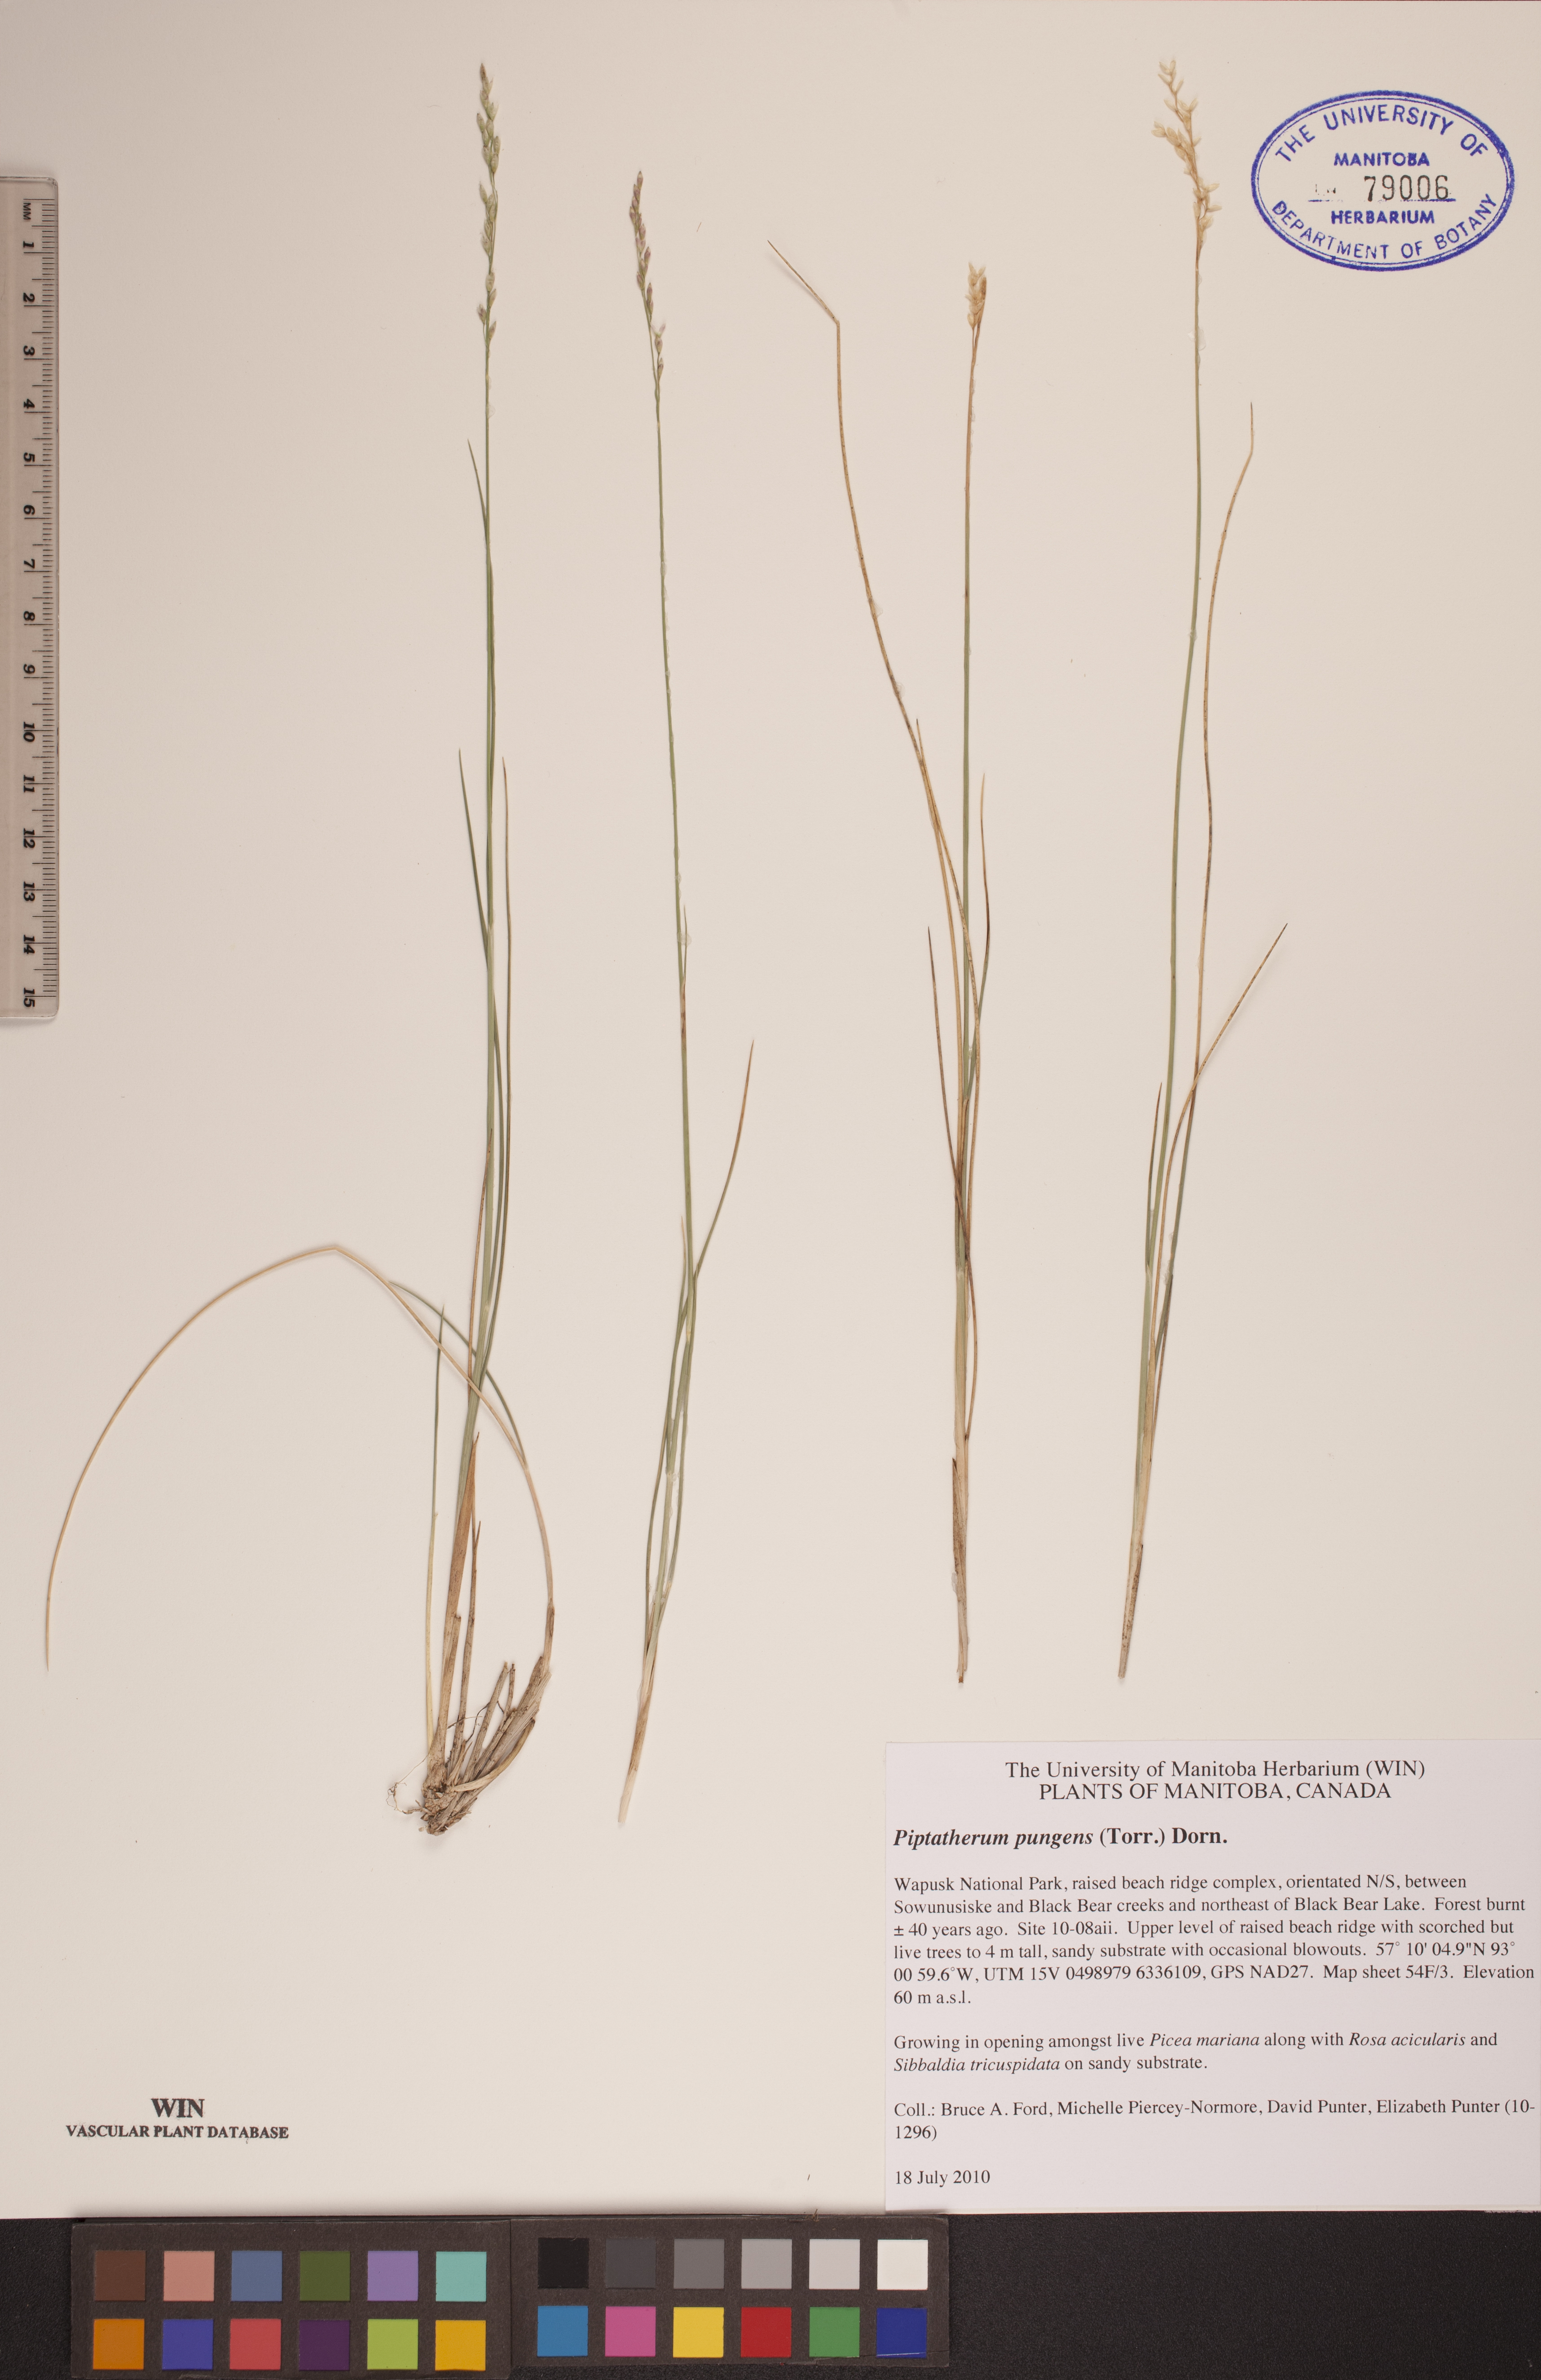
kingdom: Plantae
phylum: Tracheophyta
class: Liliopsida
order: Poales
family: Poaceae
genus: Piptatheropsis
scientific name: Piptatheropsis pungens
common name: Northern ricegrass
